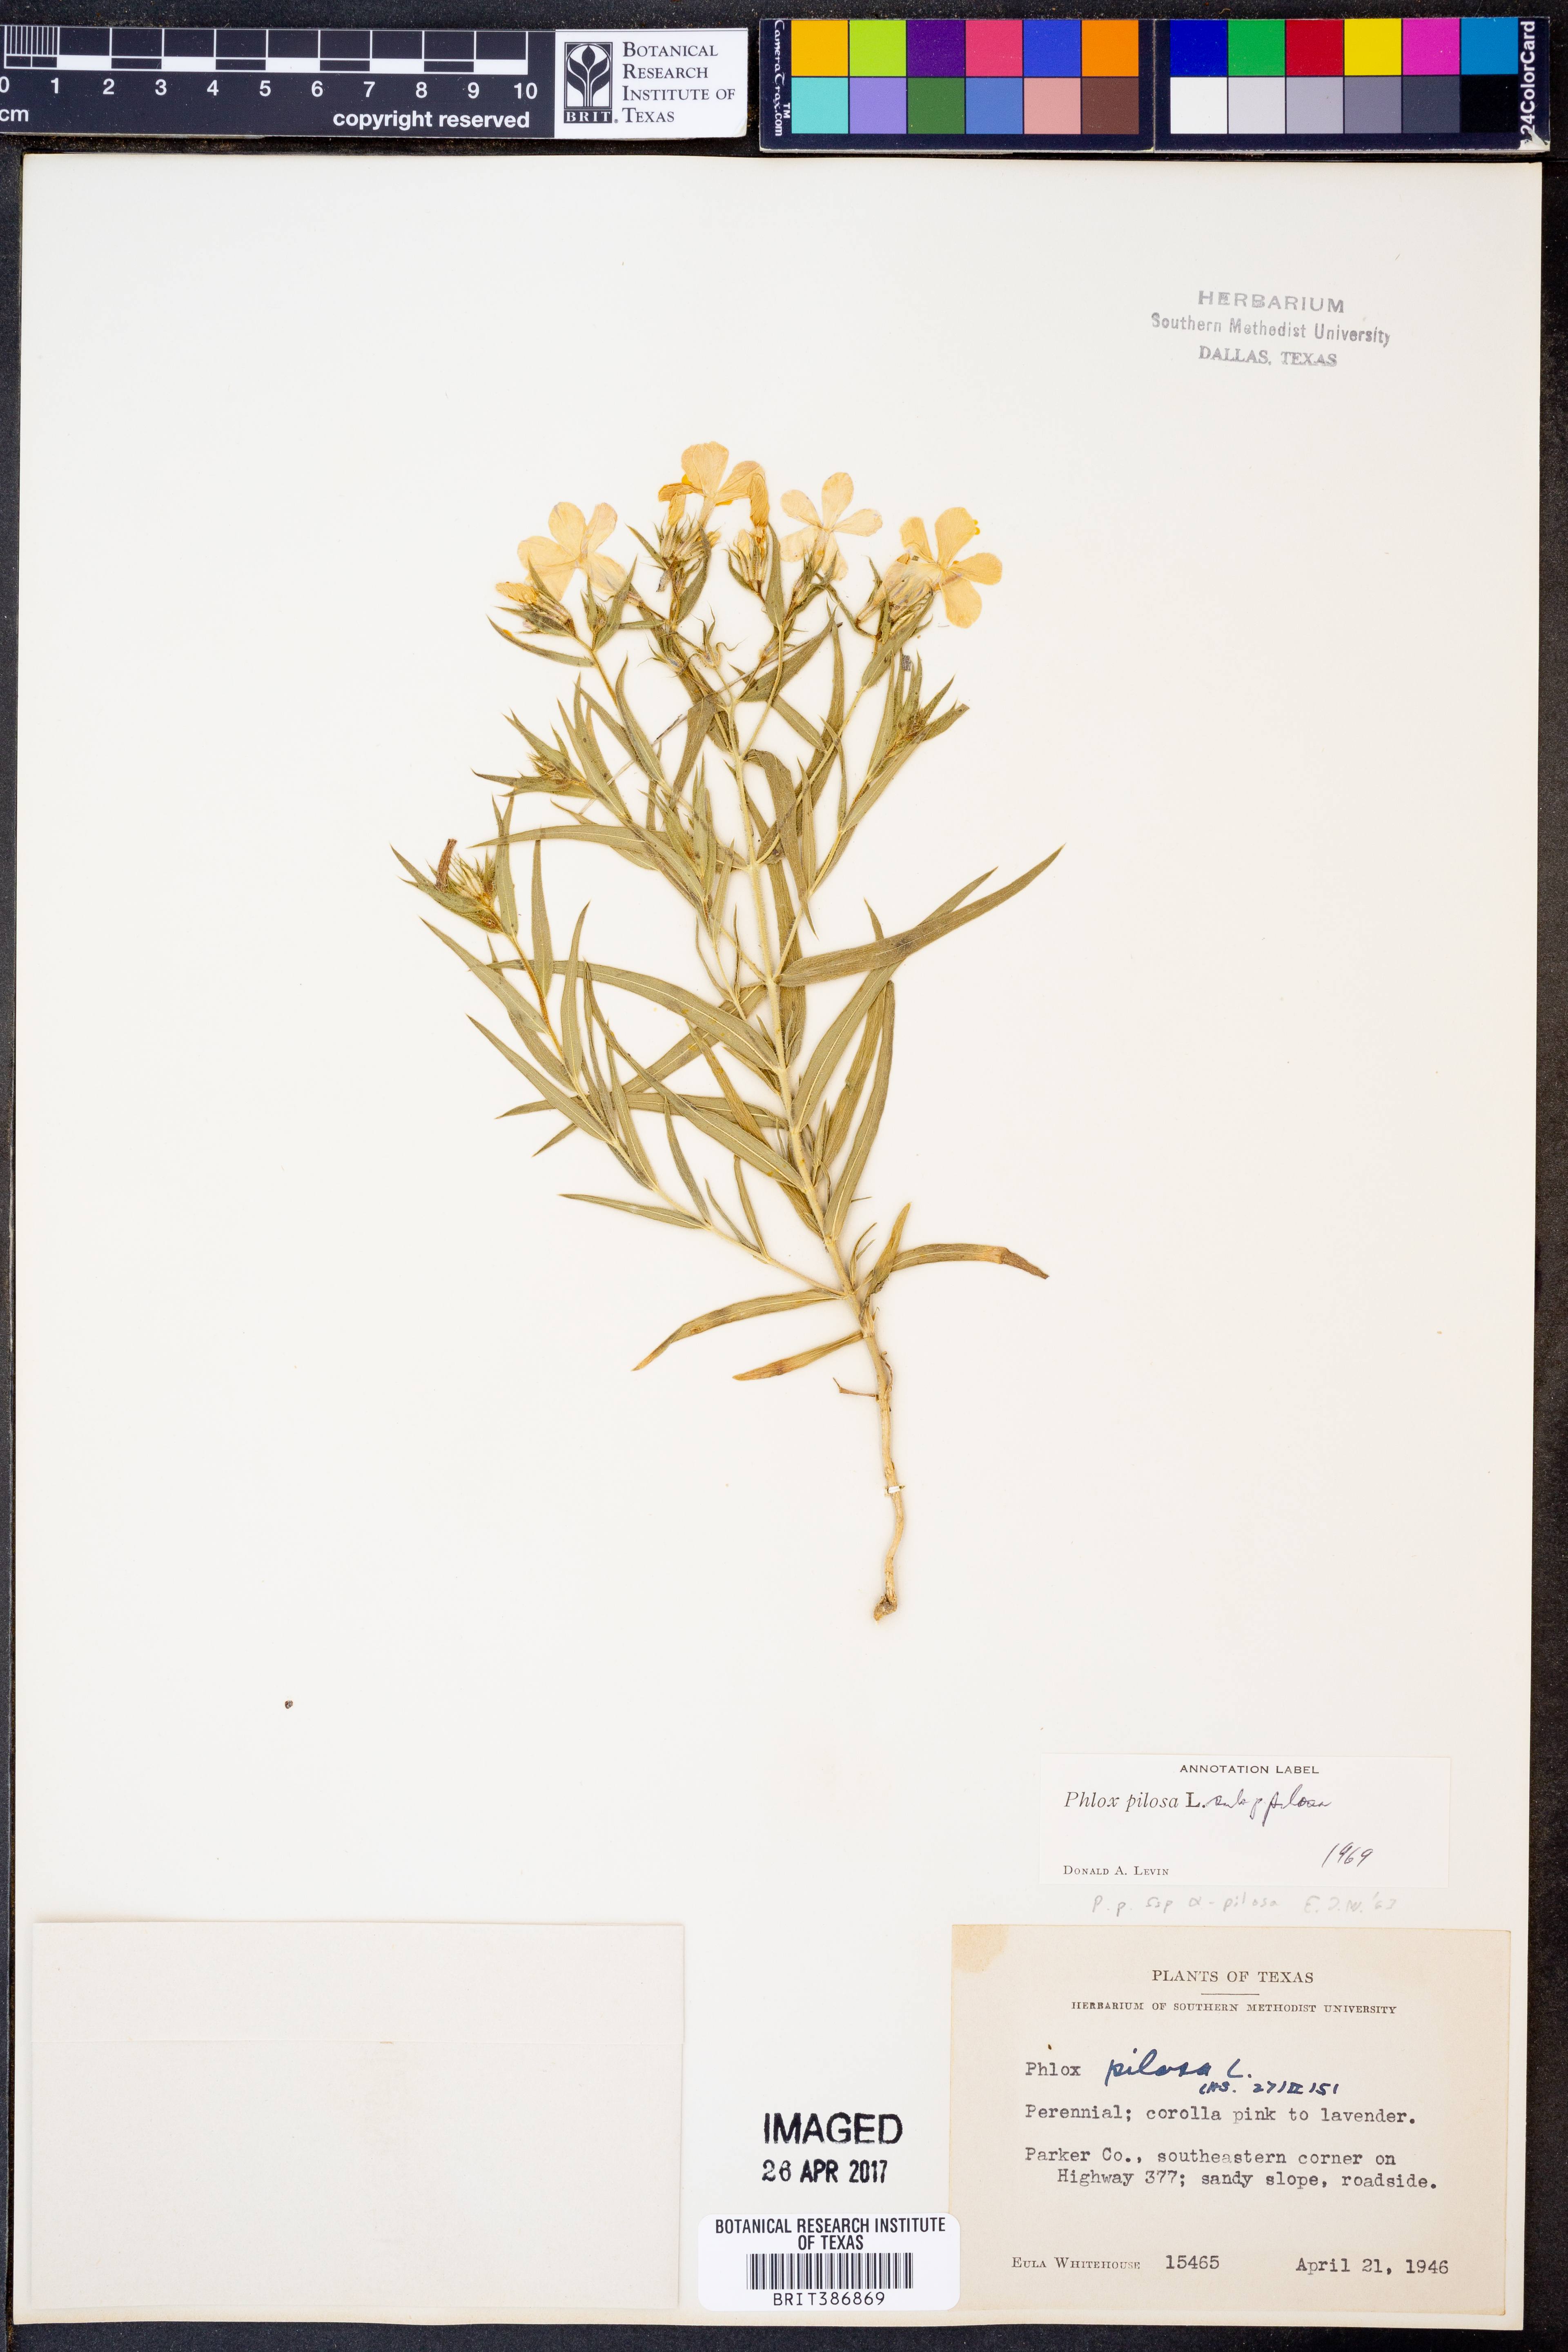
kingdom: Plantae
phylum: Tracheophyta
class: Magnoliopsida
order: Ericales
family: Polemoniaceae
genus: Phlox
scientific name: Phlox pilosa
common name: Prairie phlox
